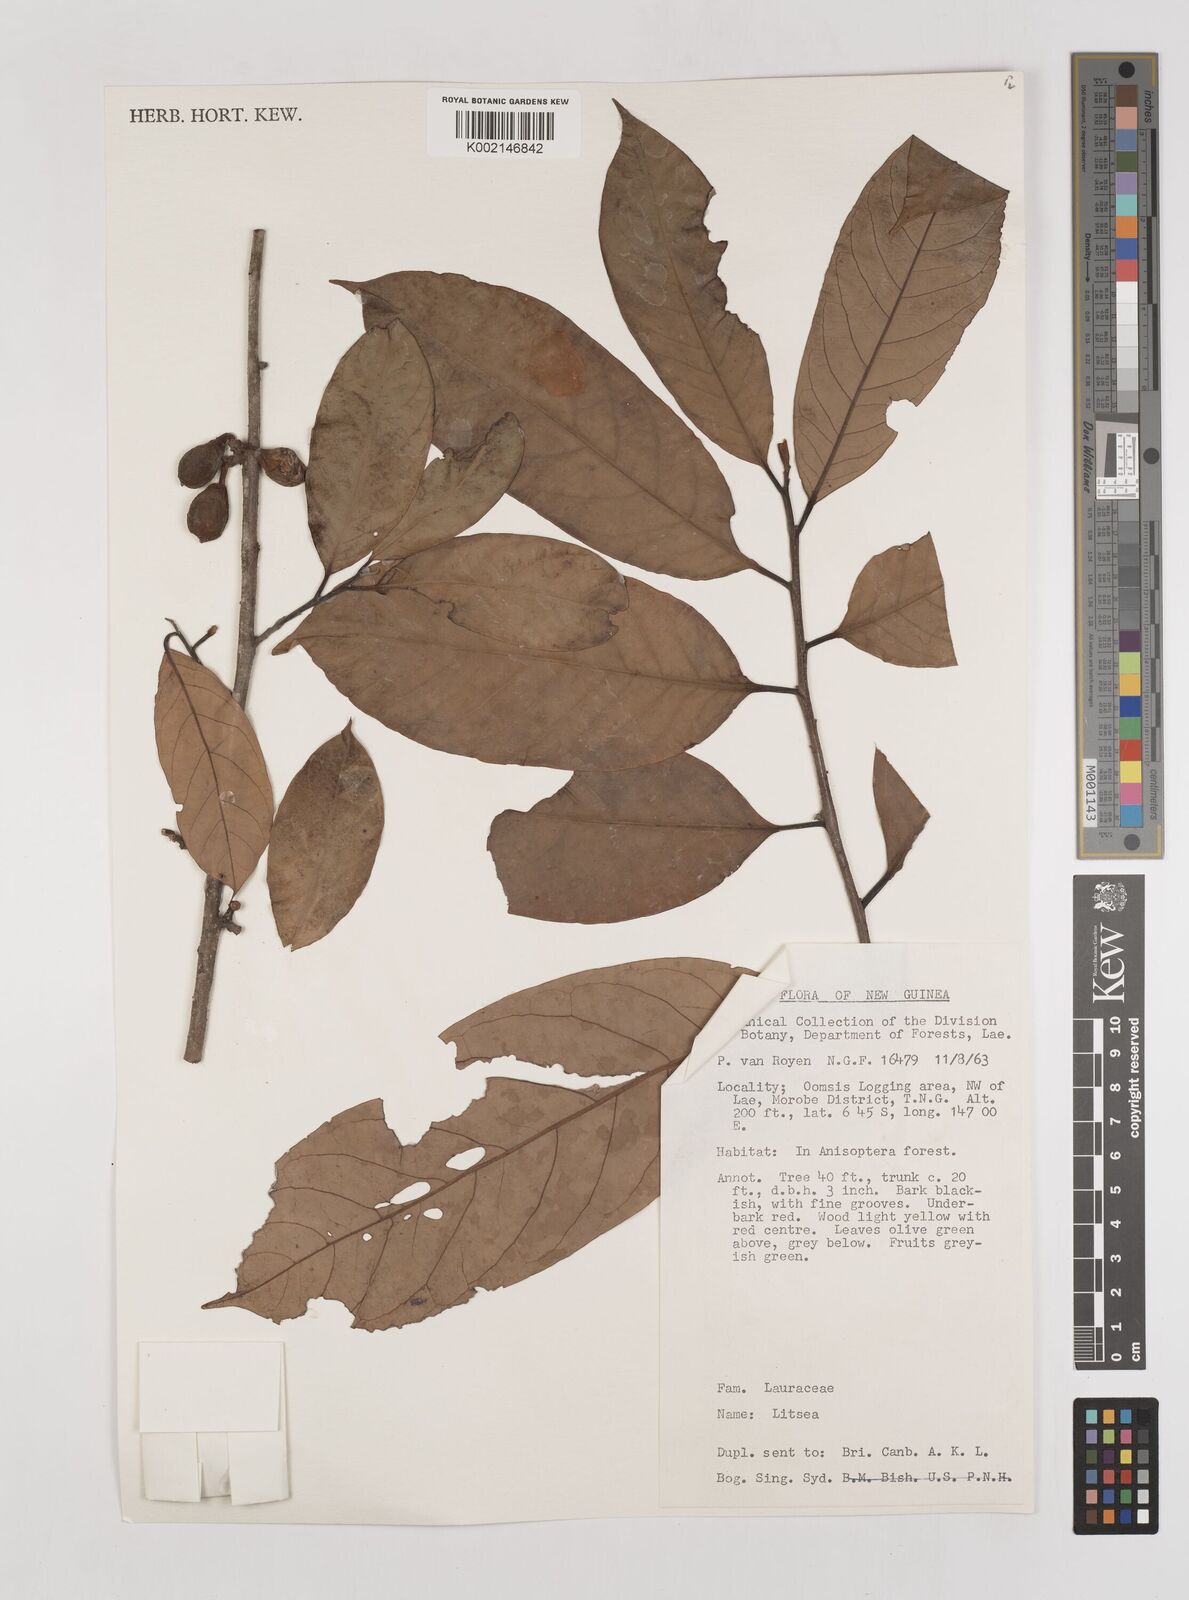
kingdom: Plantae
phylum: Tracheophyta
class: Magnoliopsida
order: Laurales
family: Lauraceae
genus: Litsea
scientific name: Litsea
